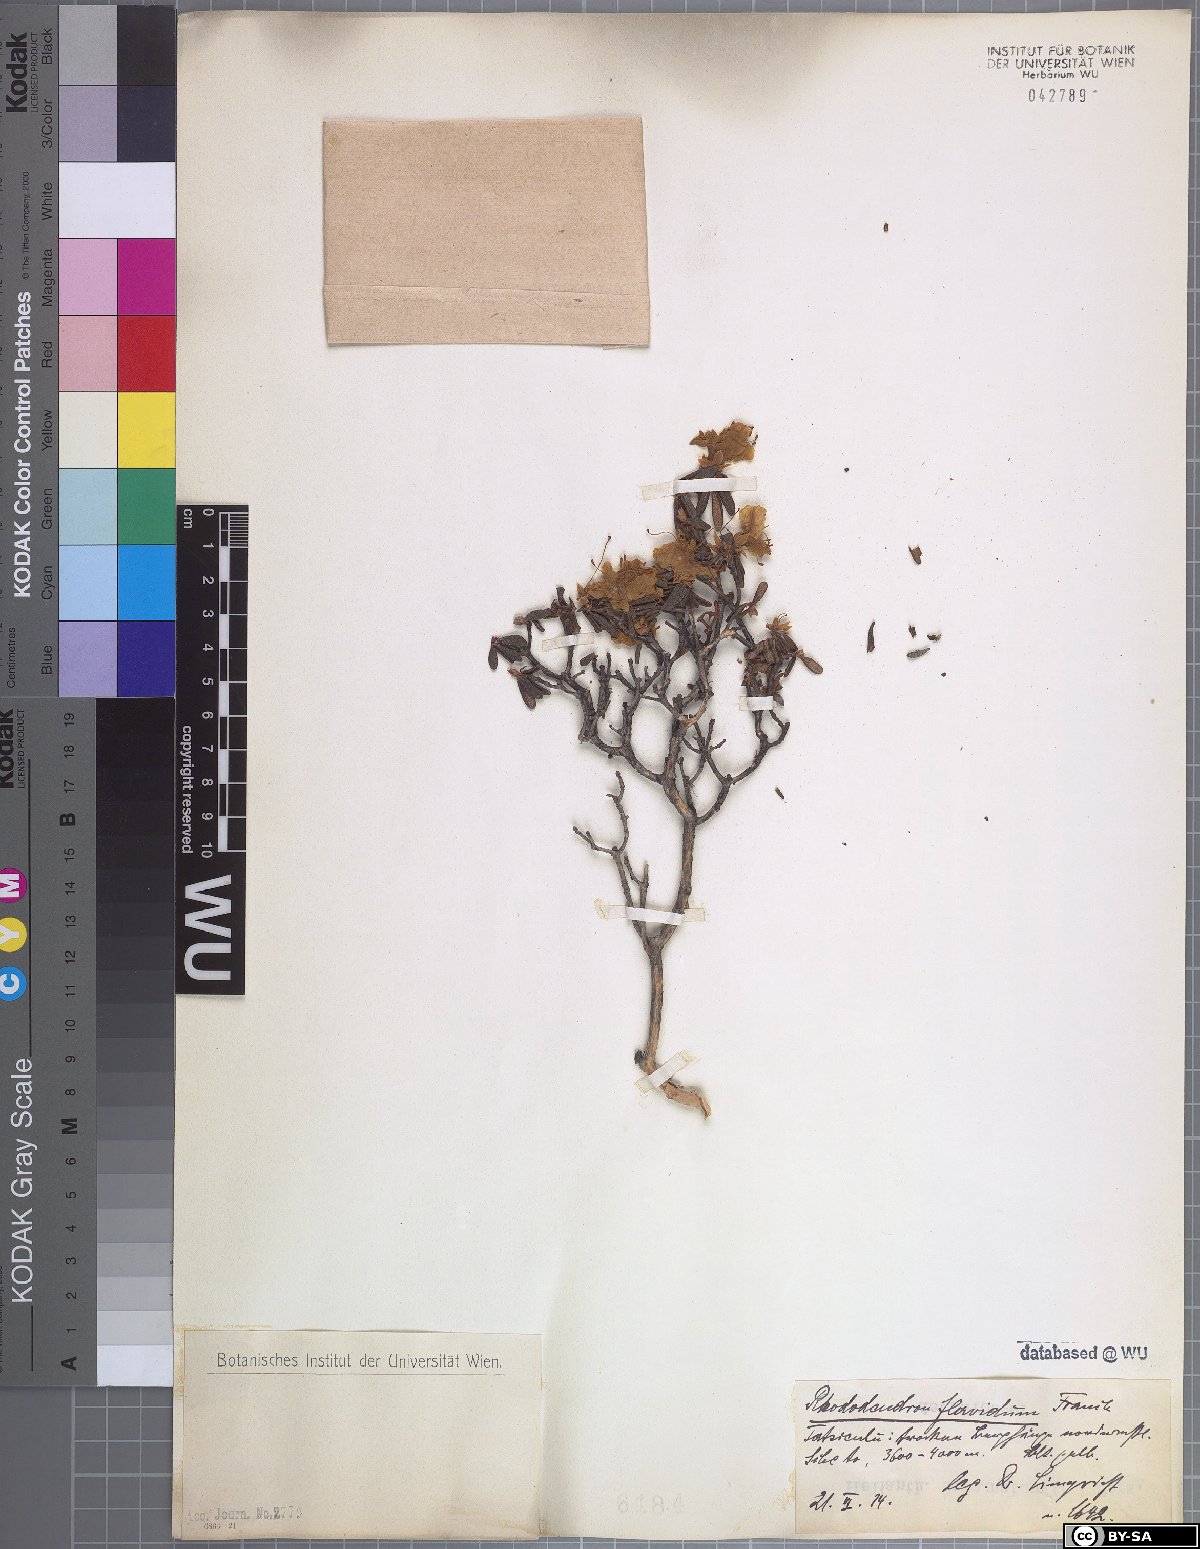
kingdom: Plantae
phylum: Tracheophyta
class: Magnoliopsida
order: Ericales
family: Ericaceae
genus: Rhododendron
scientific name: Rhododendron flavidum
